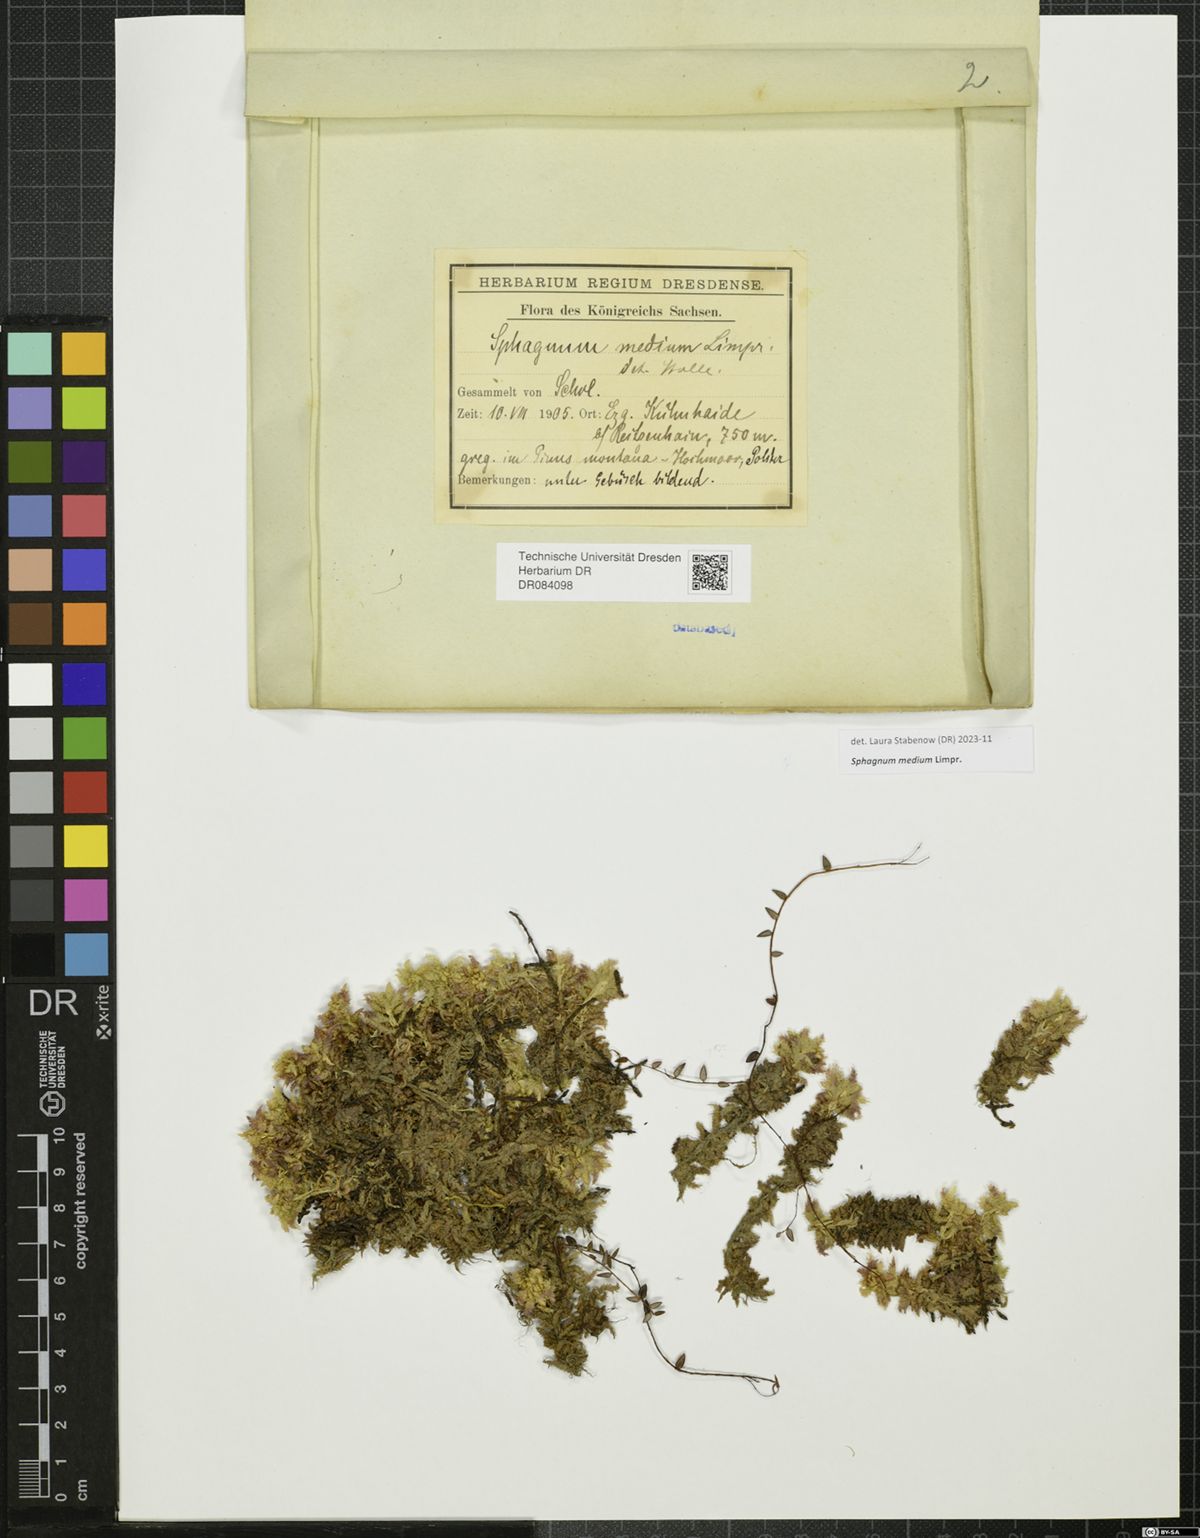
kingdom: Plantae
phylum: Bryophyta
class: Sphagnopsida
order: Sphagnales
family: Sphagnaceae
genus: Sphagnum
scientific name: Sphagnum medium
